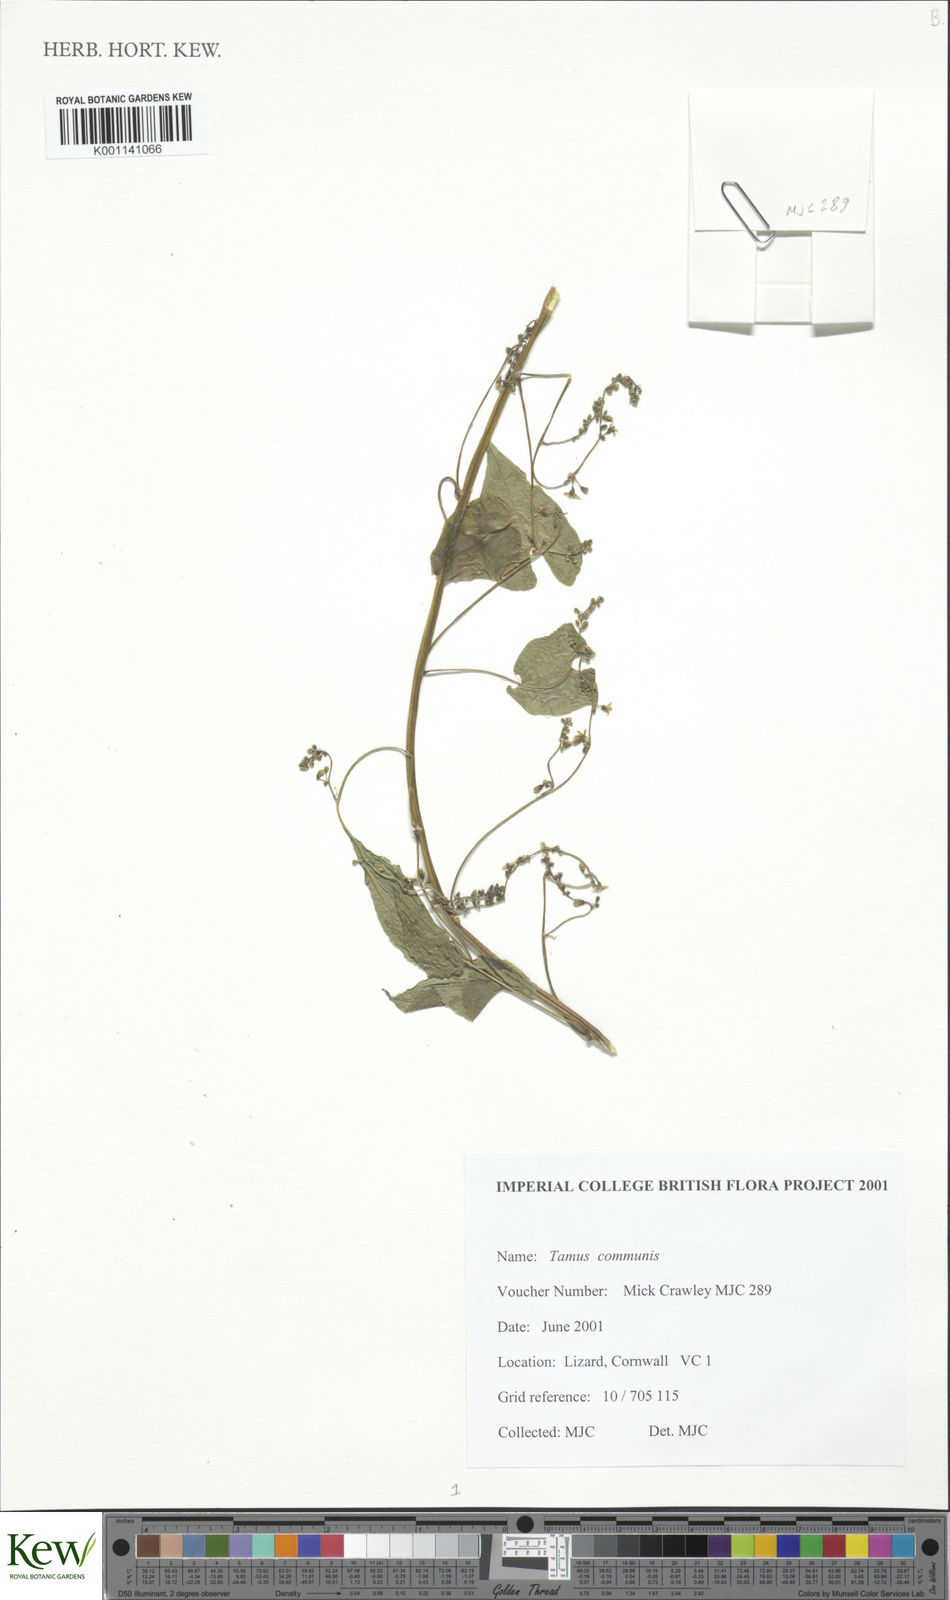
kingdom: Plantae
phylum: Tracheophyta
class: Liliopsida
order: Dioscoreales
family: Dioscoreaceae
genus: Dioscorea
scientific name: Dioscorea communis
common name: Black-bindweed
